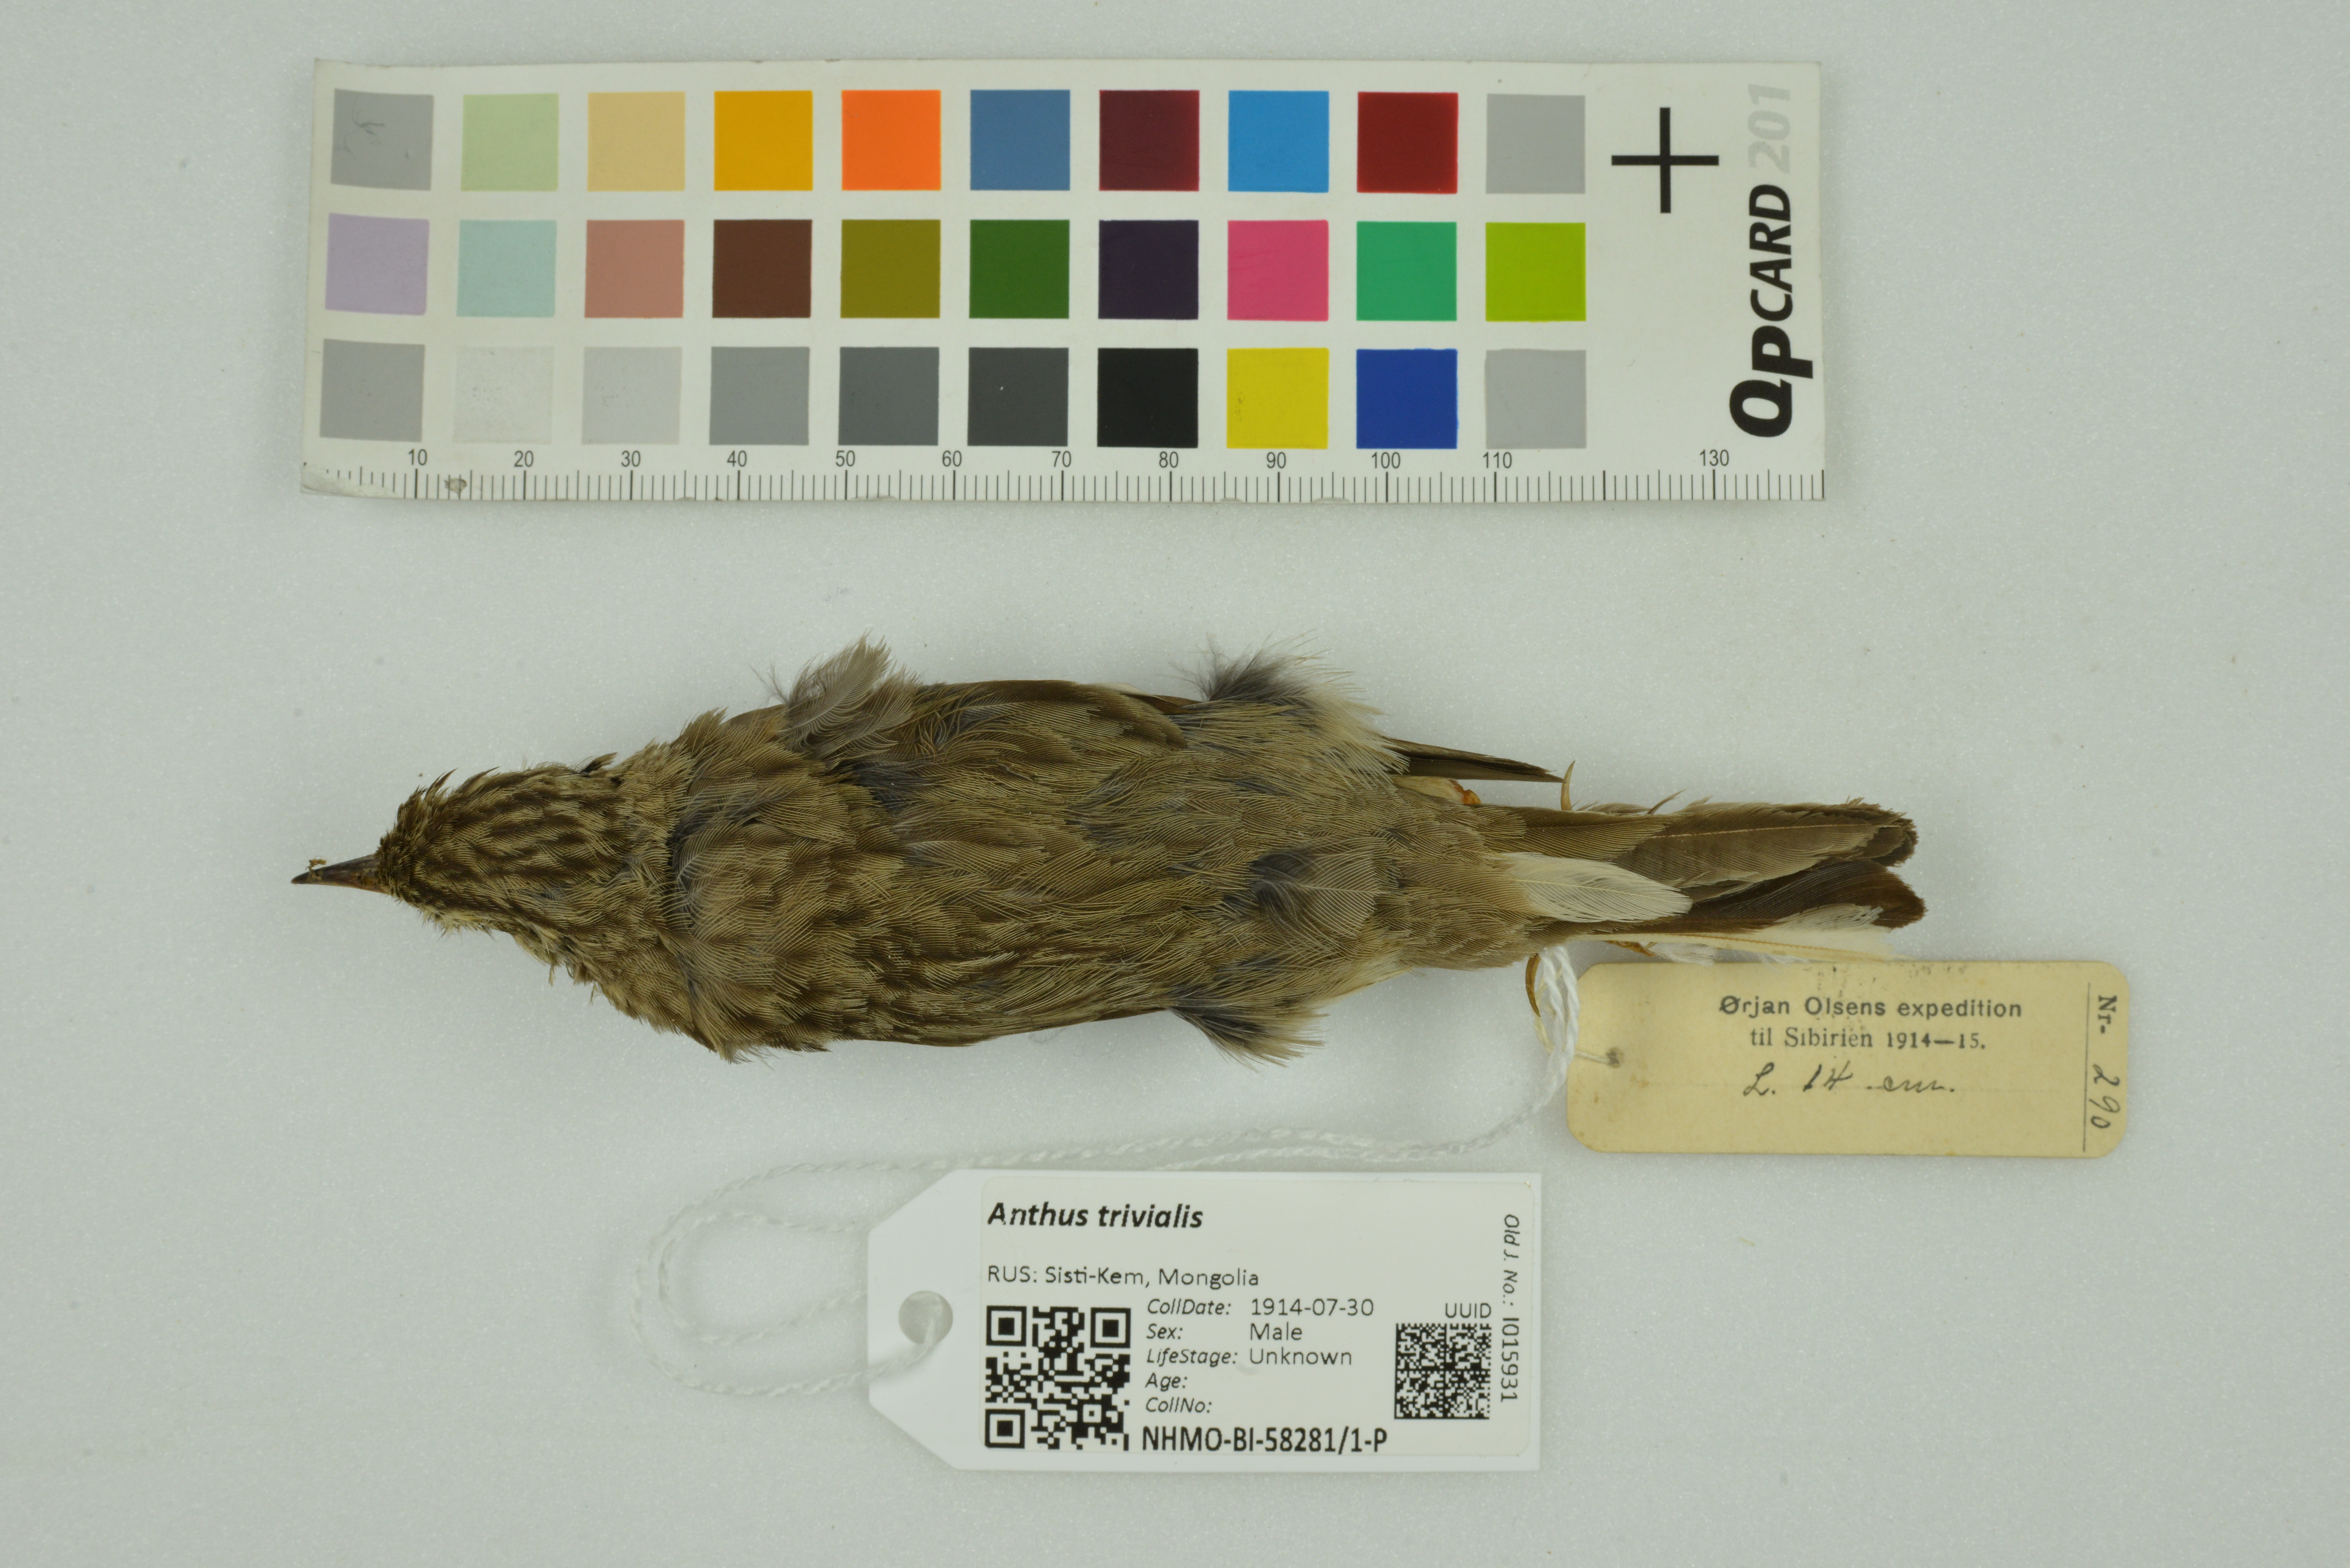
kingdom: Animalia
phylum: Chordata
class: Aves
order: Passeriformes
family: Motacillidae
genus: Anthus
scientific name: Anthus trivialis
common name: Tree pipit
